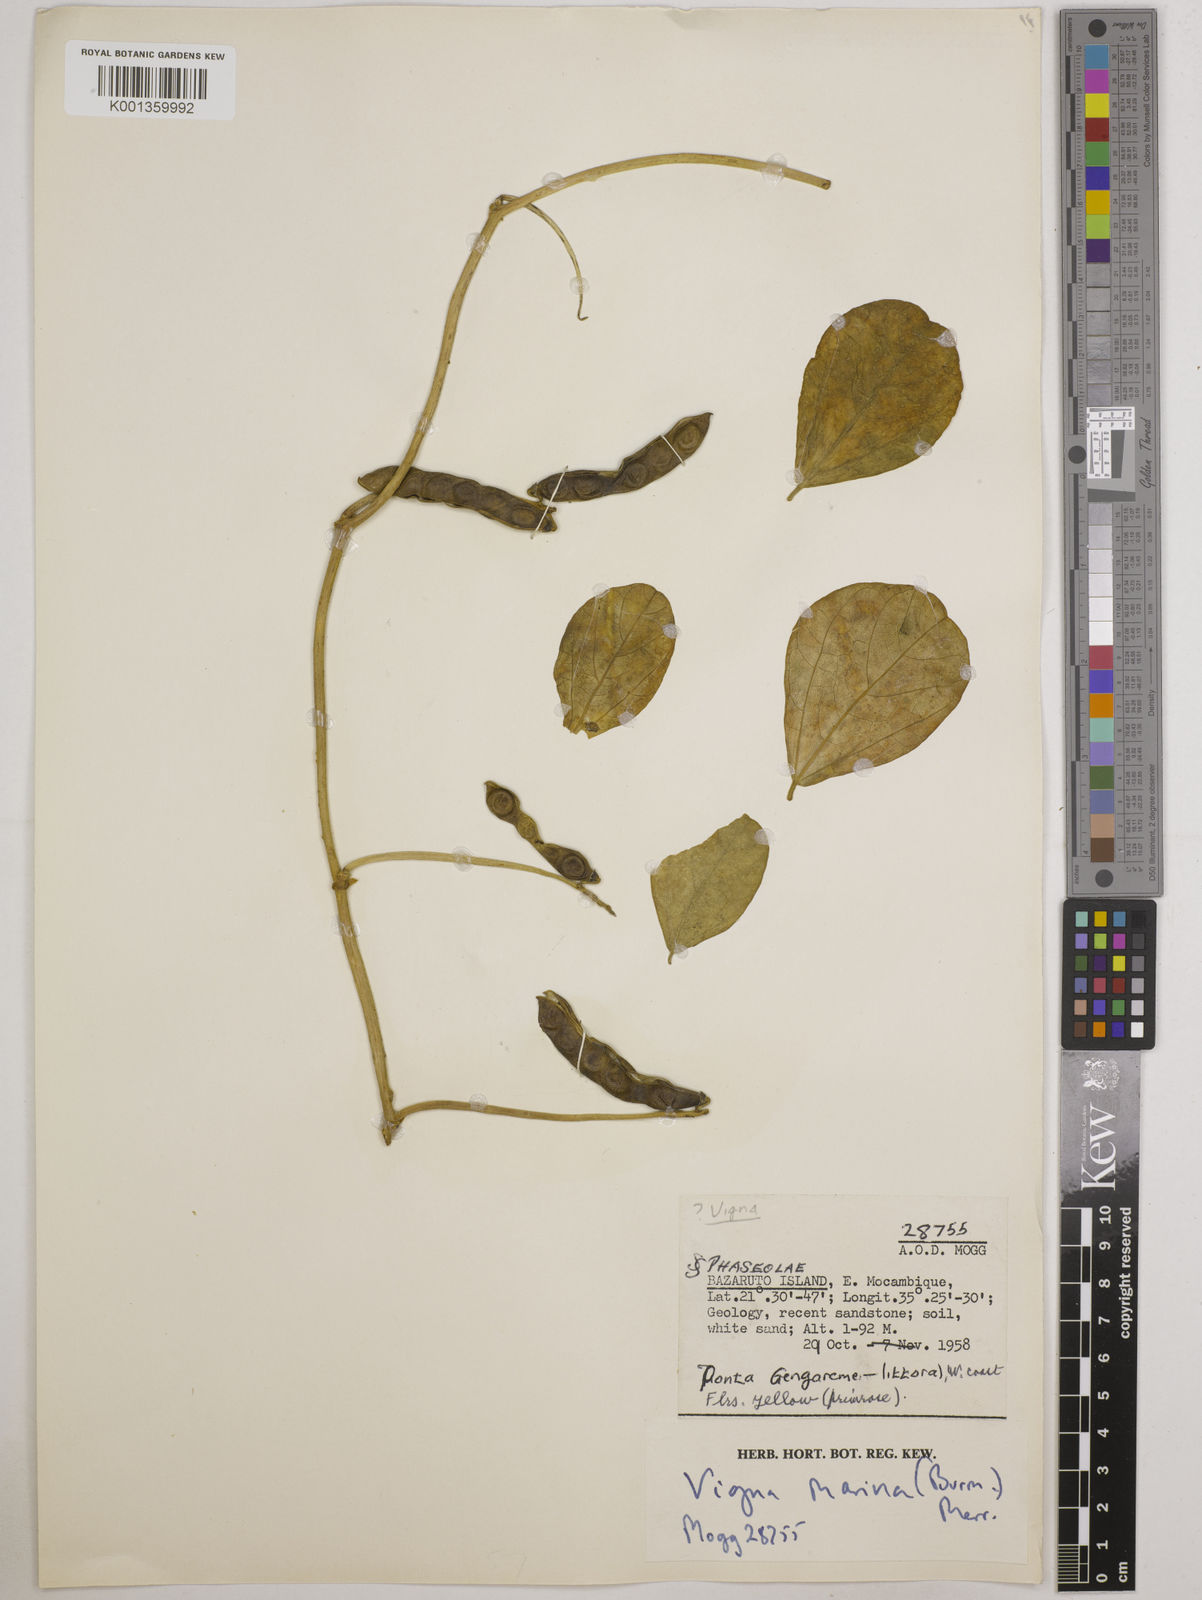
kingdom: Plantae
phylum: Tracheophyta
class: Magnoliopsida
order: Fabales
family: Fabaceae
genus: Vigna
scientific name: Vigna marina
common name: Dune-bean
